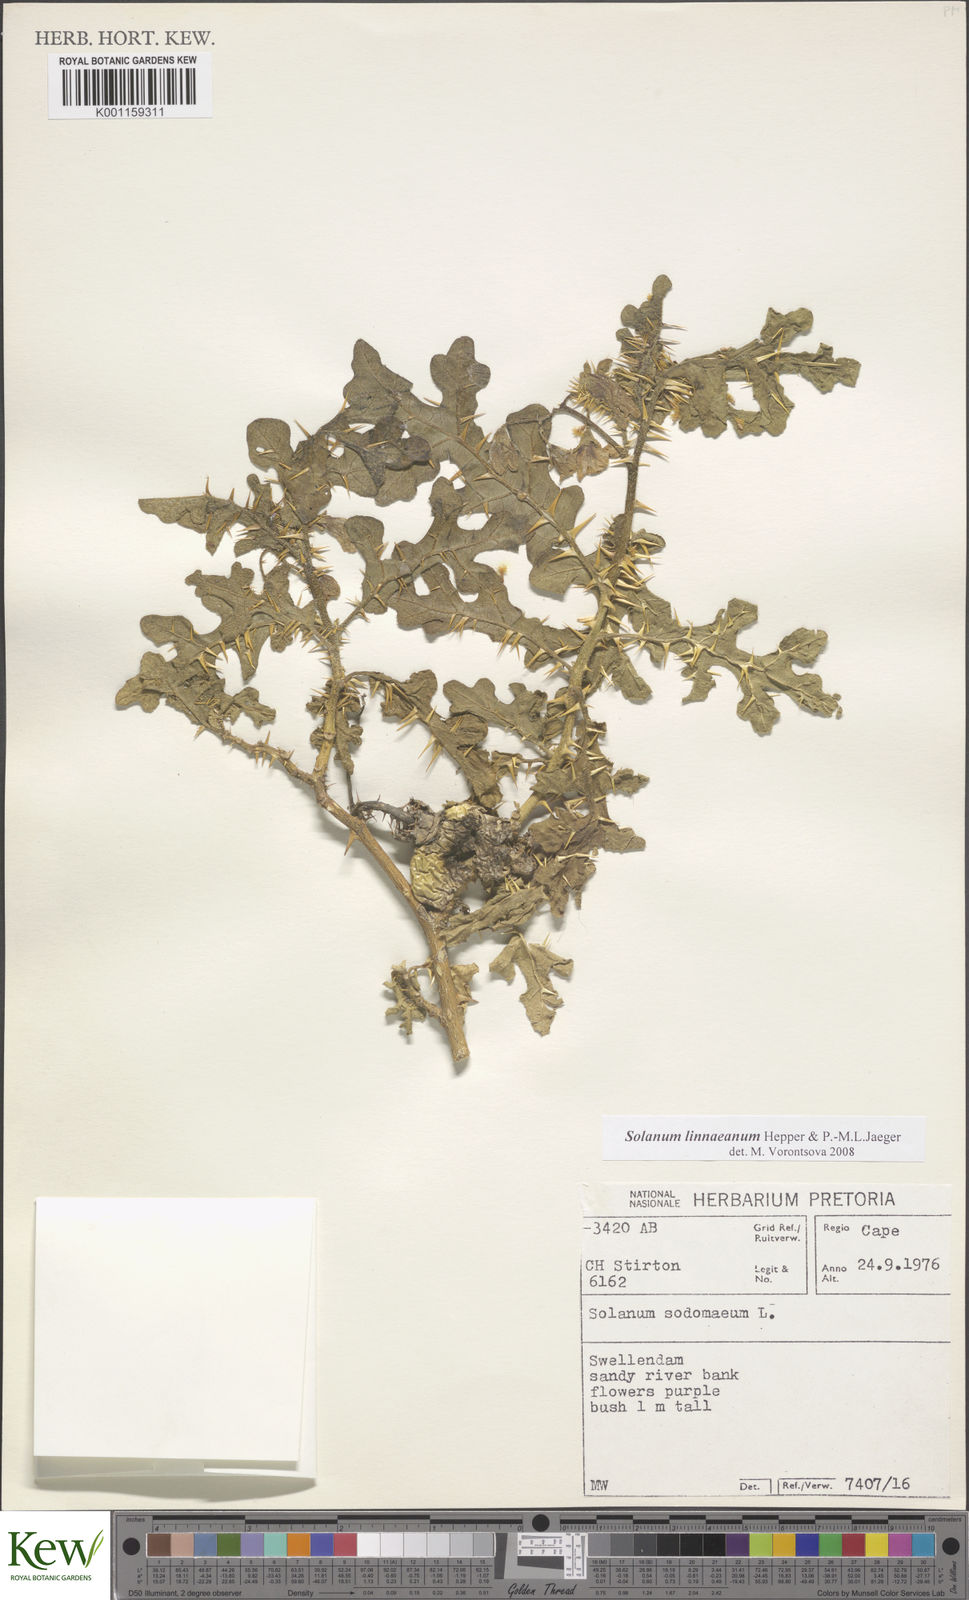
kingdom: Plantae
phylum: Tracheophyta
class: Magnoliopsida
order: Solanales
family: Solanaceae
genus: Solanum
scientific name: Solanum linnaeanum
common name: Nightshade
